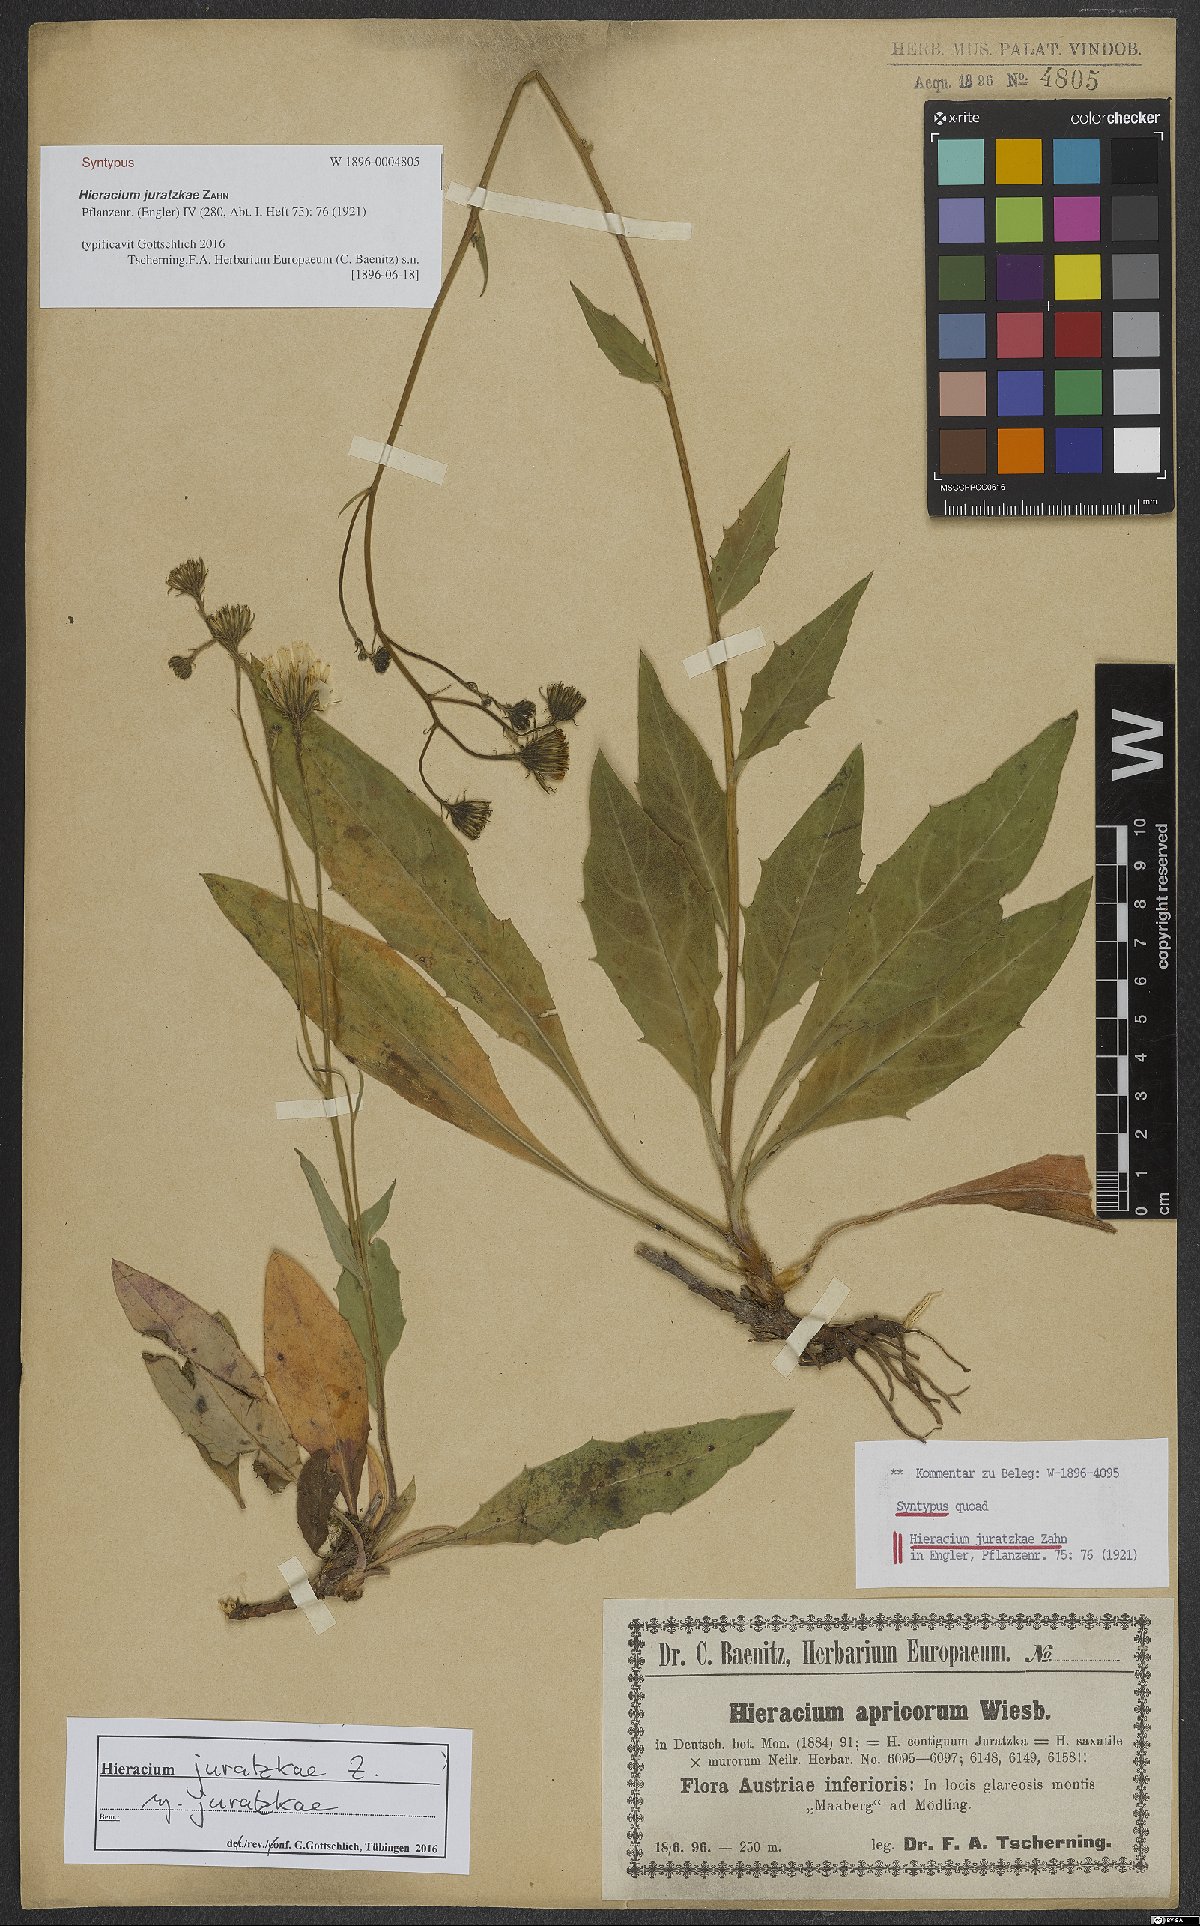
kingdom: Plantae
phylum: Tracheophyta
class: Magnoliopsida
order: Asterales
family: Asteraceae
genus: Hieracium
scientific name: Hieracium juratzkae
